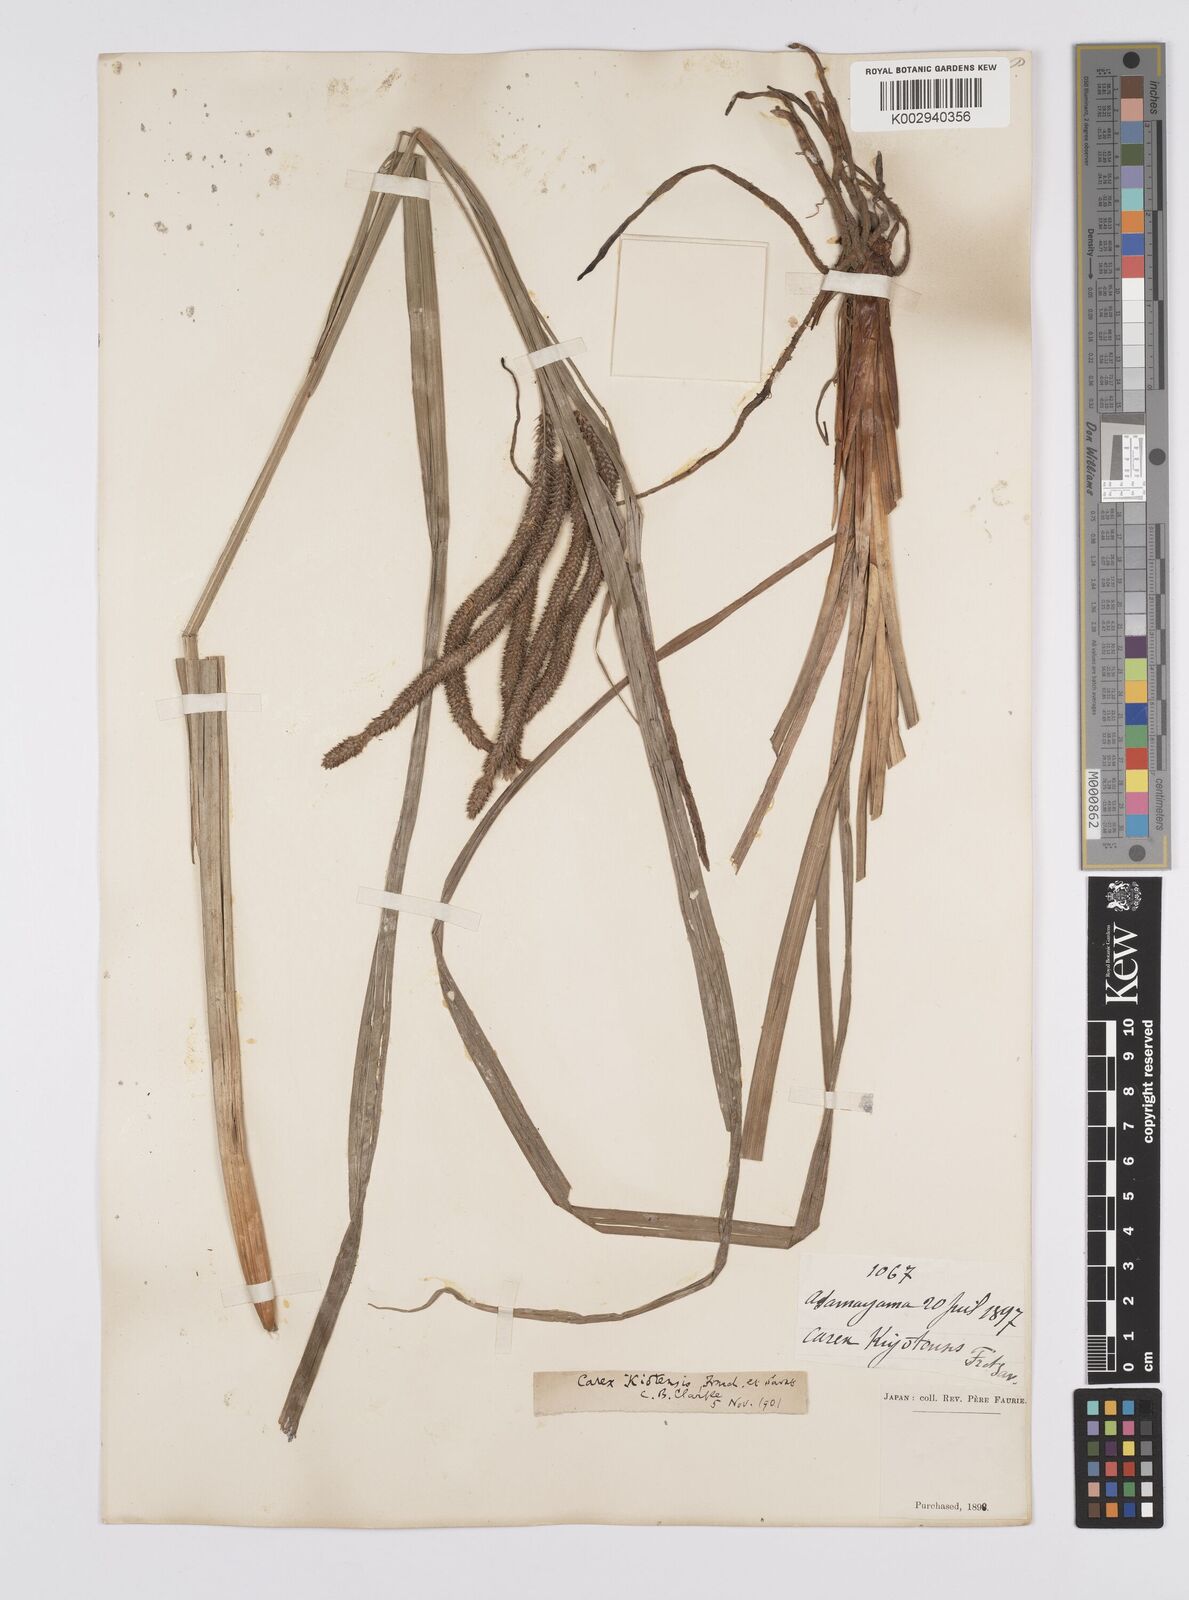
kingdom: Plantae
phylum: Tracheophyta
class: Liliopsida
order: Poales
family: Cyperaceae
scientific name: Cyperaceae
